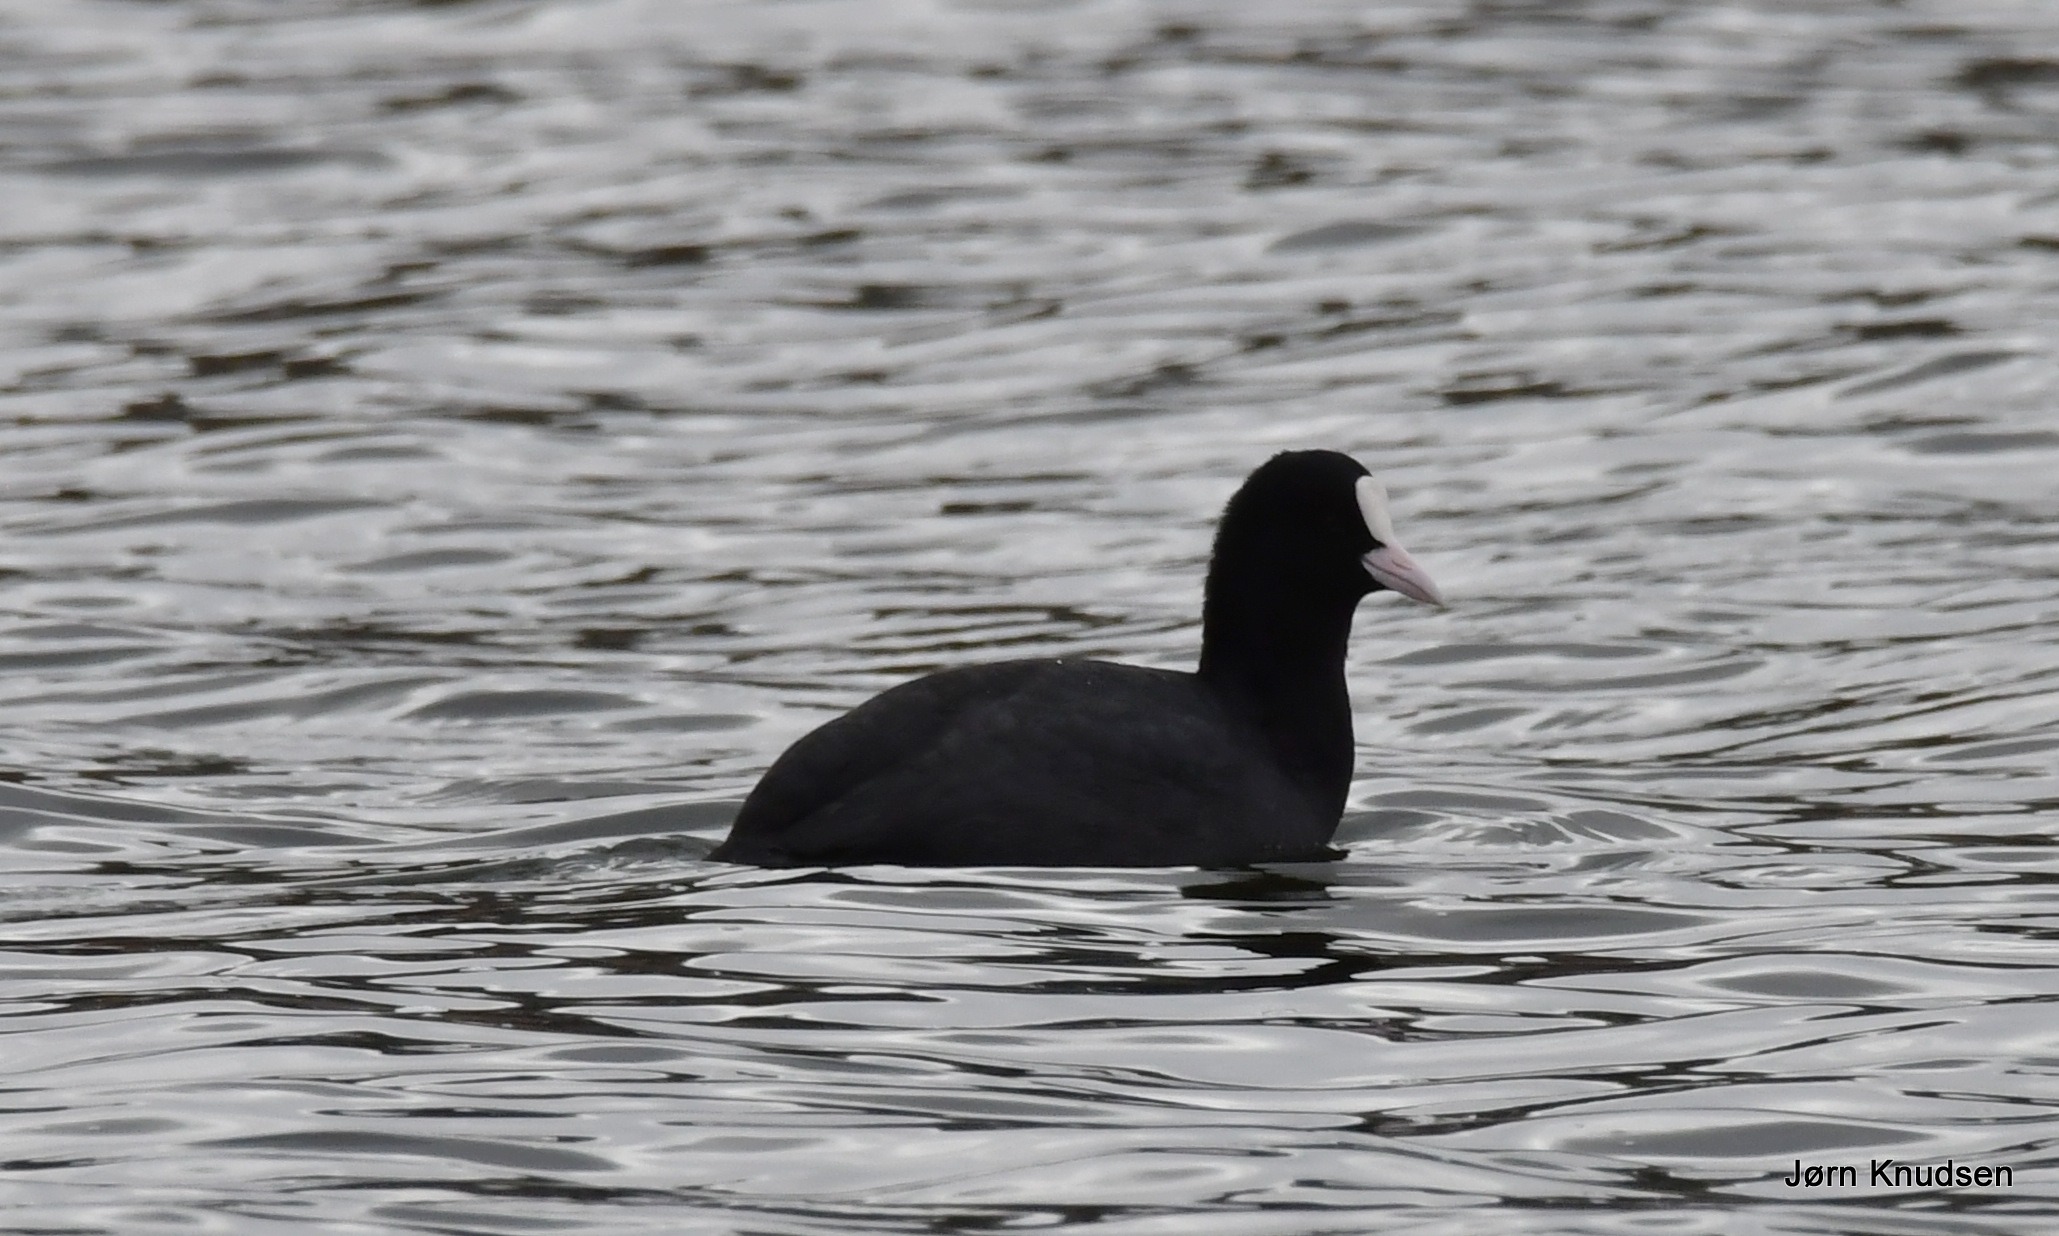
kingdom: Animalia
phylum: Chordata
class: Aves
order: Gruiformes
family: Rallidae
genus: Fulica
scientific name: Fulica atra
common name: Blishøne
